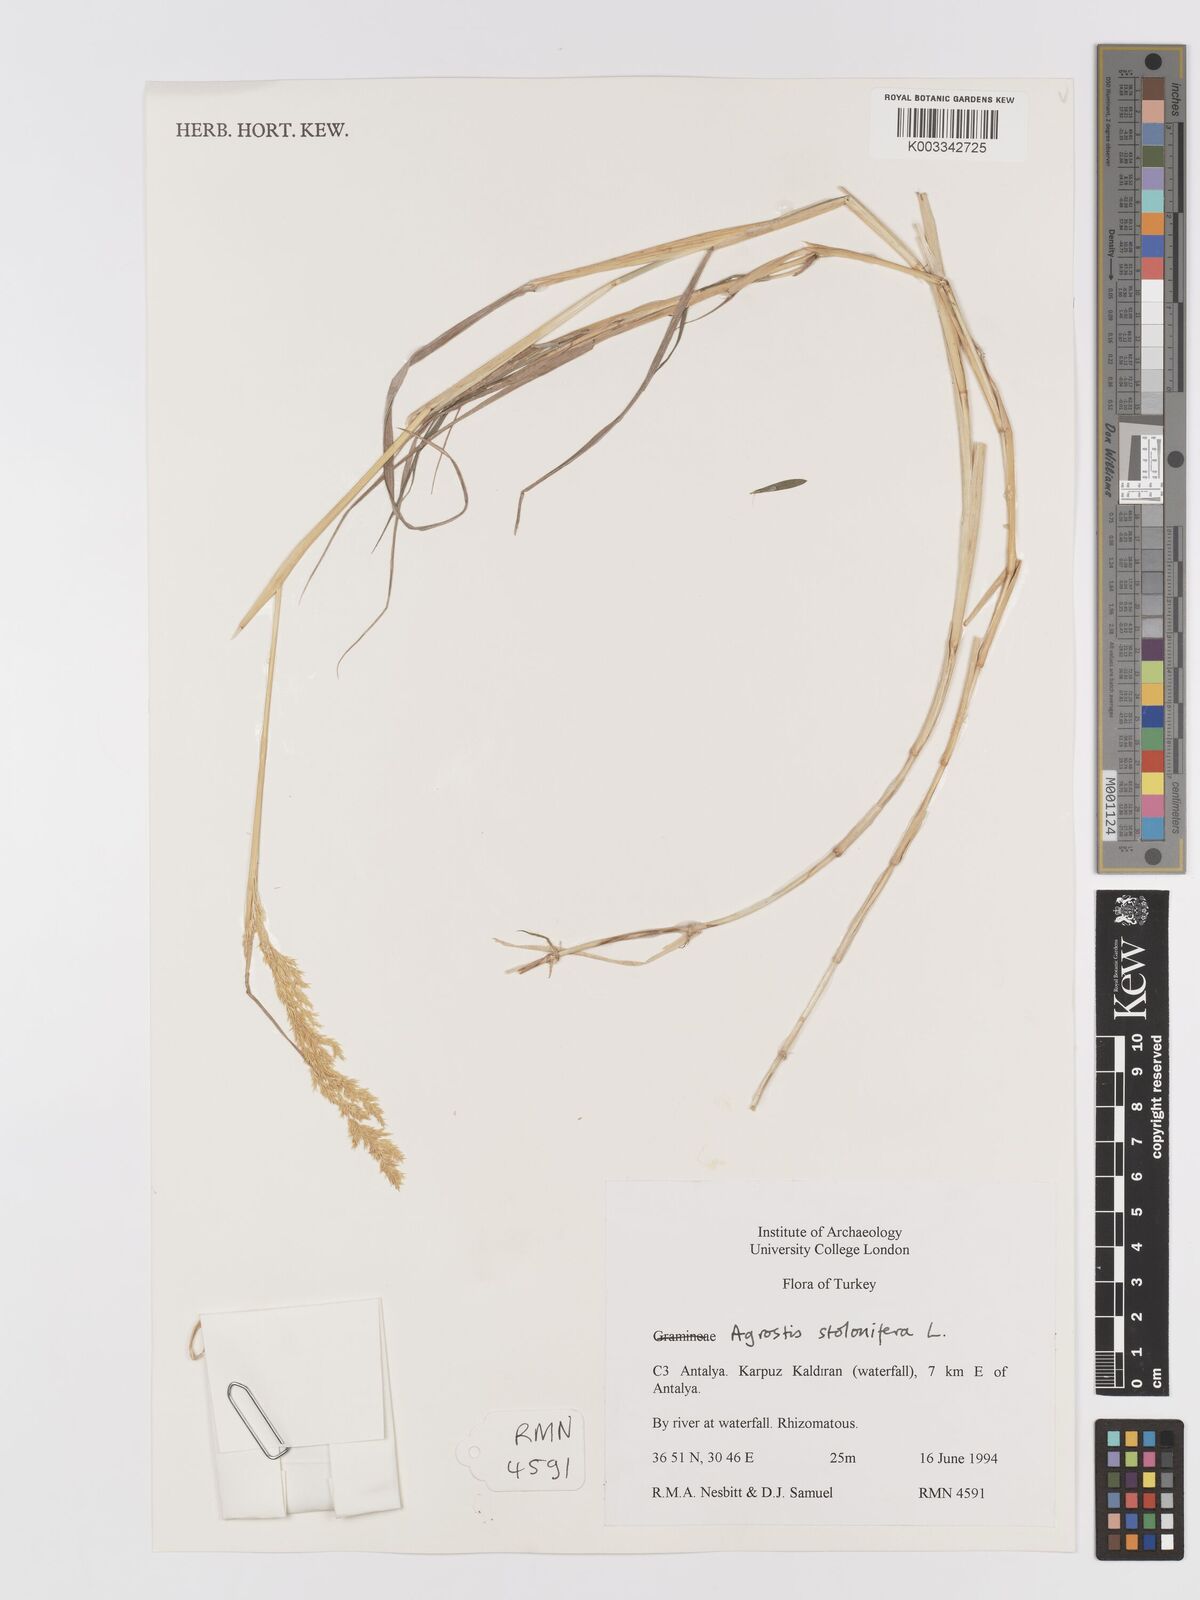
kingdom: Plantae
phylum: Tracheophyta
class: Liliopsida
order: Poales
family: Poaceae
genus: Agrostis
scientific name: Agrostis stolonifera
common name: Creeping bentgrass
